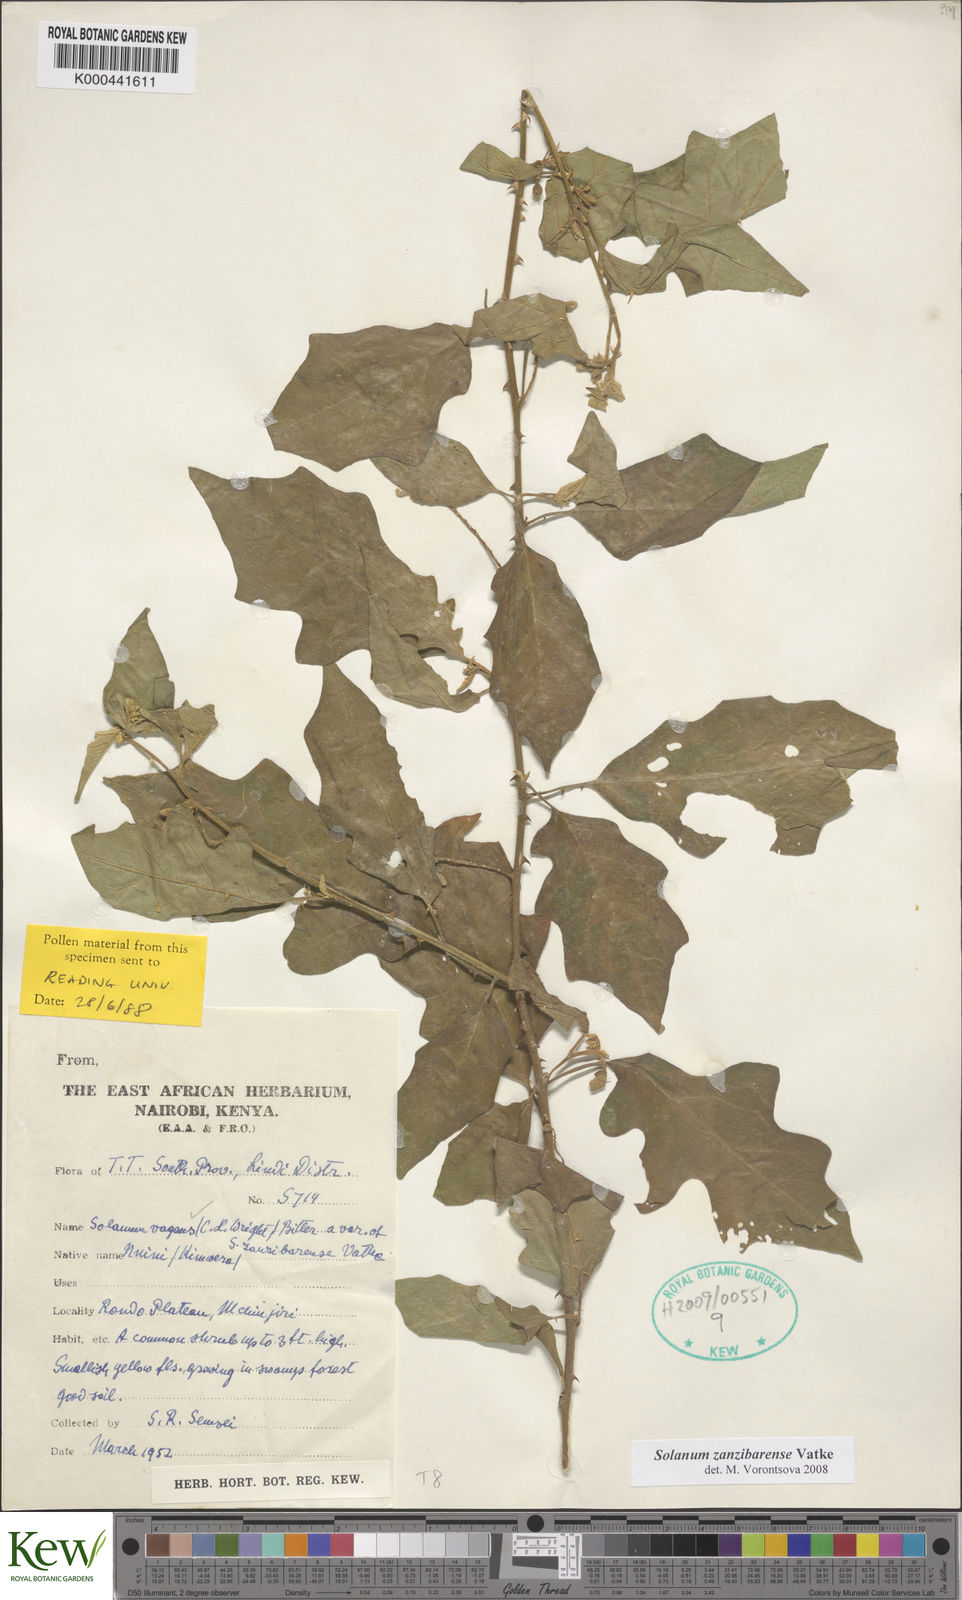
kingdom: Plantae
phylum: Tracheophyta
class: Magnoliopsida
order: Solanales
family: Solanaceae
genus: Solanum
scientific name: Solanum zanzibarense
